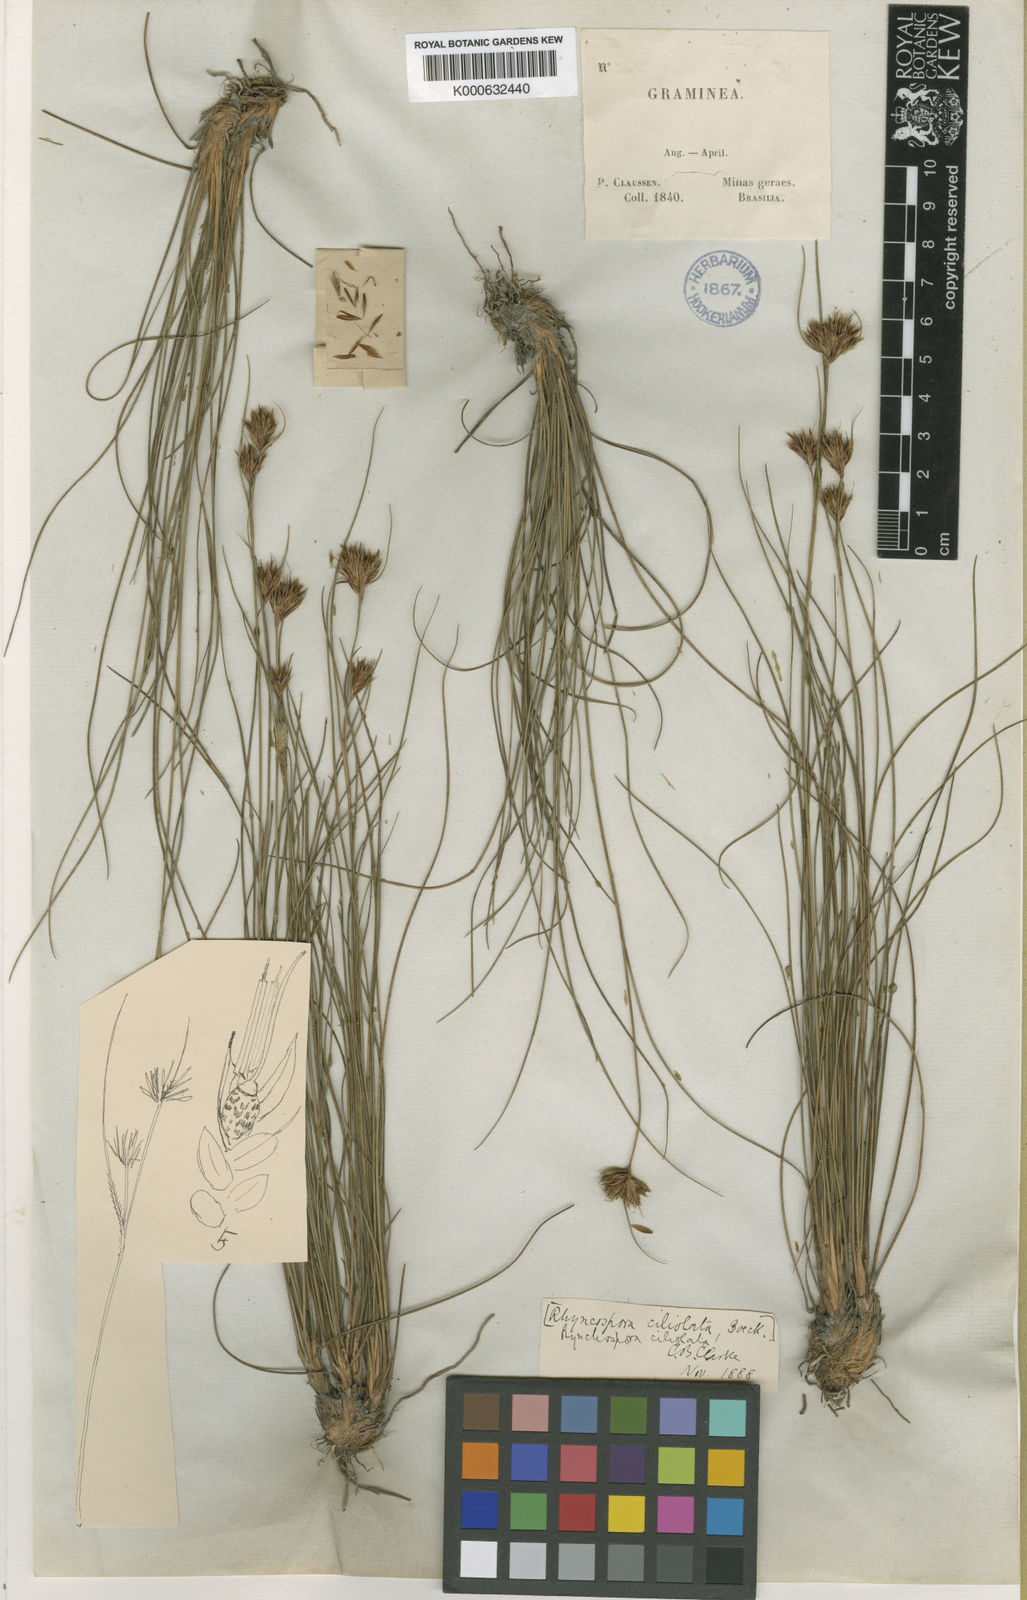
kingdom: Plantae
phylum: Tracheophyta
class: Liliopsida
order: Poales
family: Cyperaceae
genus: Rhynchospora
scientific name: Rhynchospora ciliolata
